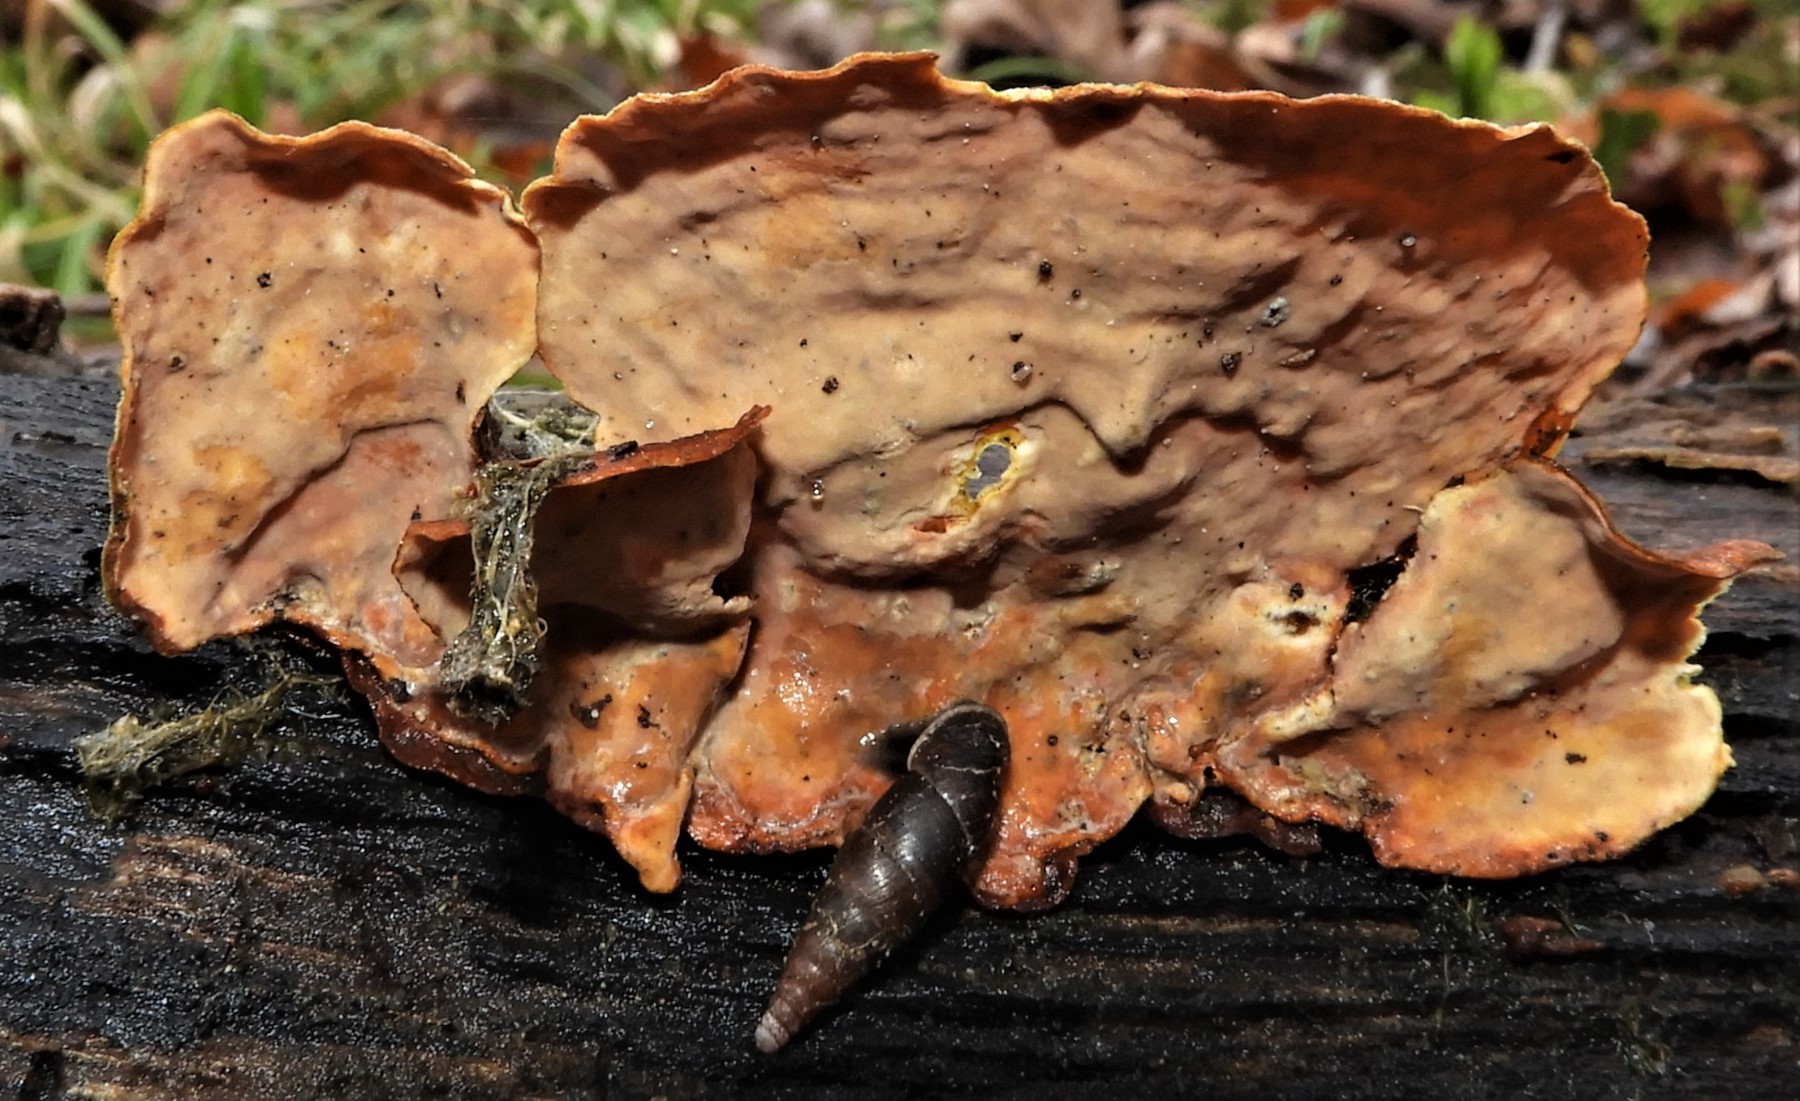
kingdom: Fungi
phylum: Basidiomycota
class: Agaricomycetes
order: Russulales
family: Stereaceae
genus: Stereum
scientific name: Stereum subtomentosum
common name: smuk lædersvamp
